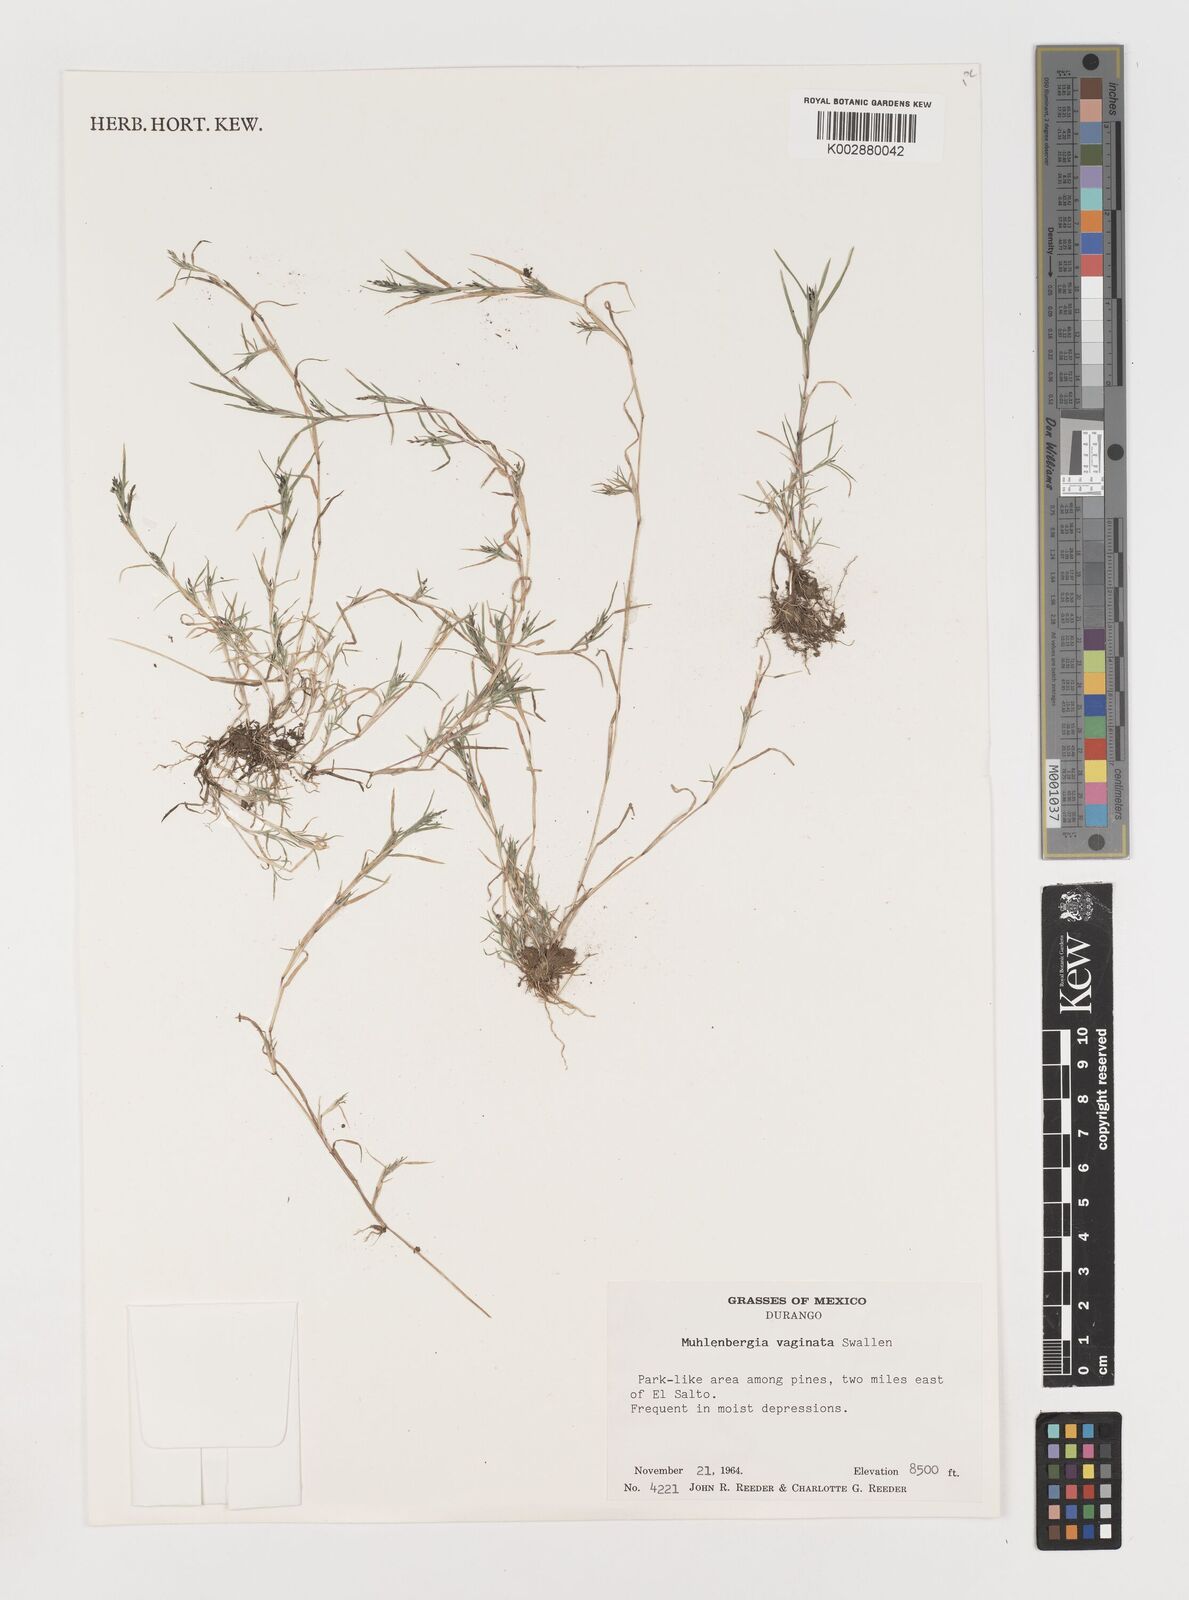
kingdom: Plantae
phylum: Tracheophyta
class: Liliopsida
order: Poales
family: Poaceae
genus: Muhlenbergia
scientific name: Muhlenbergia vaginata
